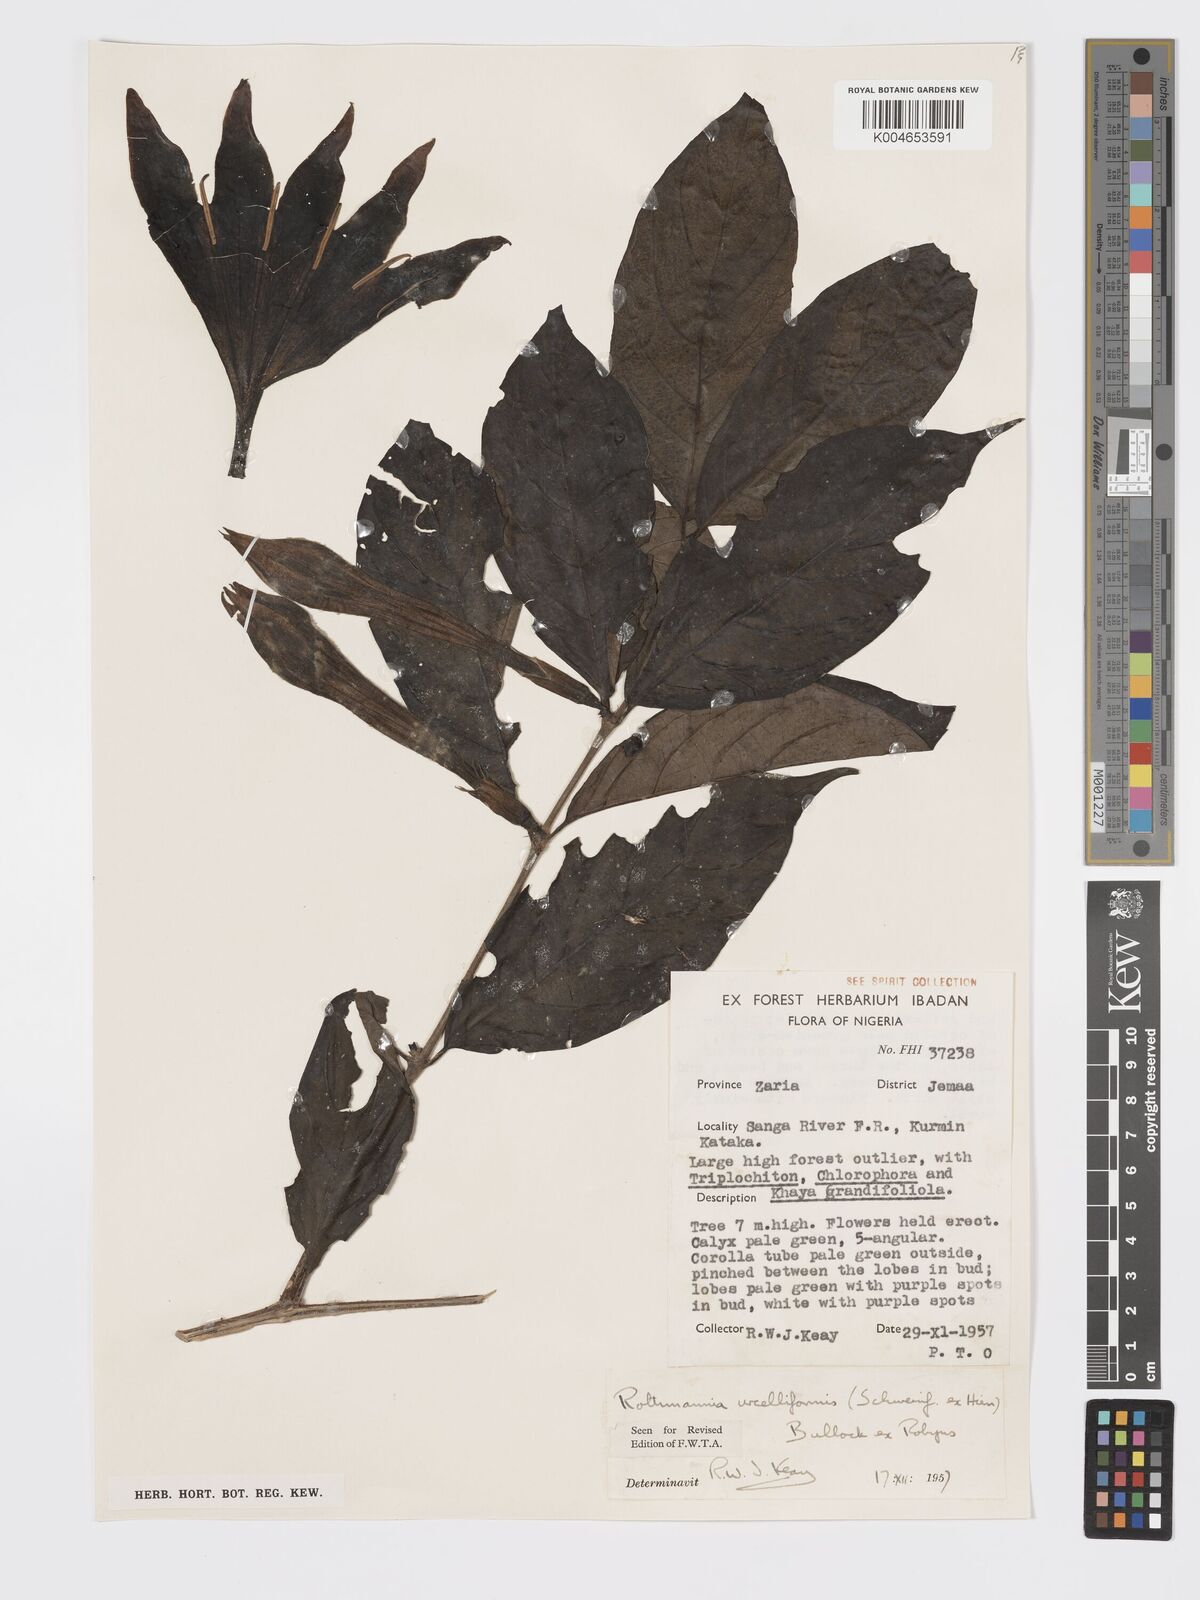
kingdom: Plantae
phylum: Tracheophyta
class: Magnoliopsida
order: Gentianales
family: Rubiaceae
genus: Rothmannia
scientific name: Rothmannia urcelliformis
